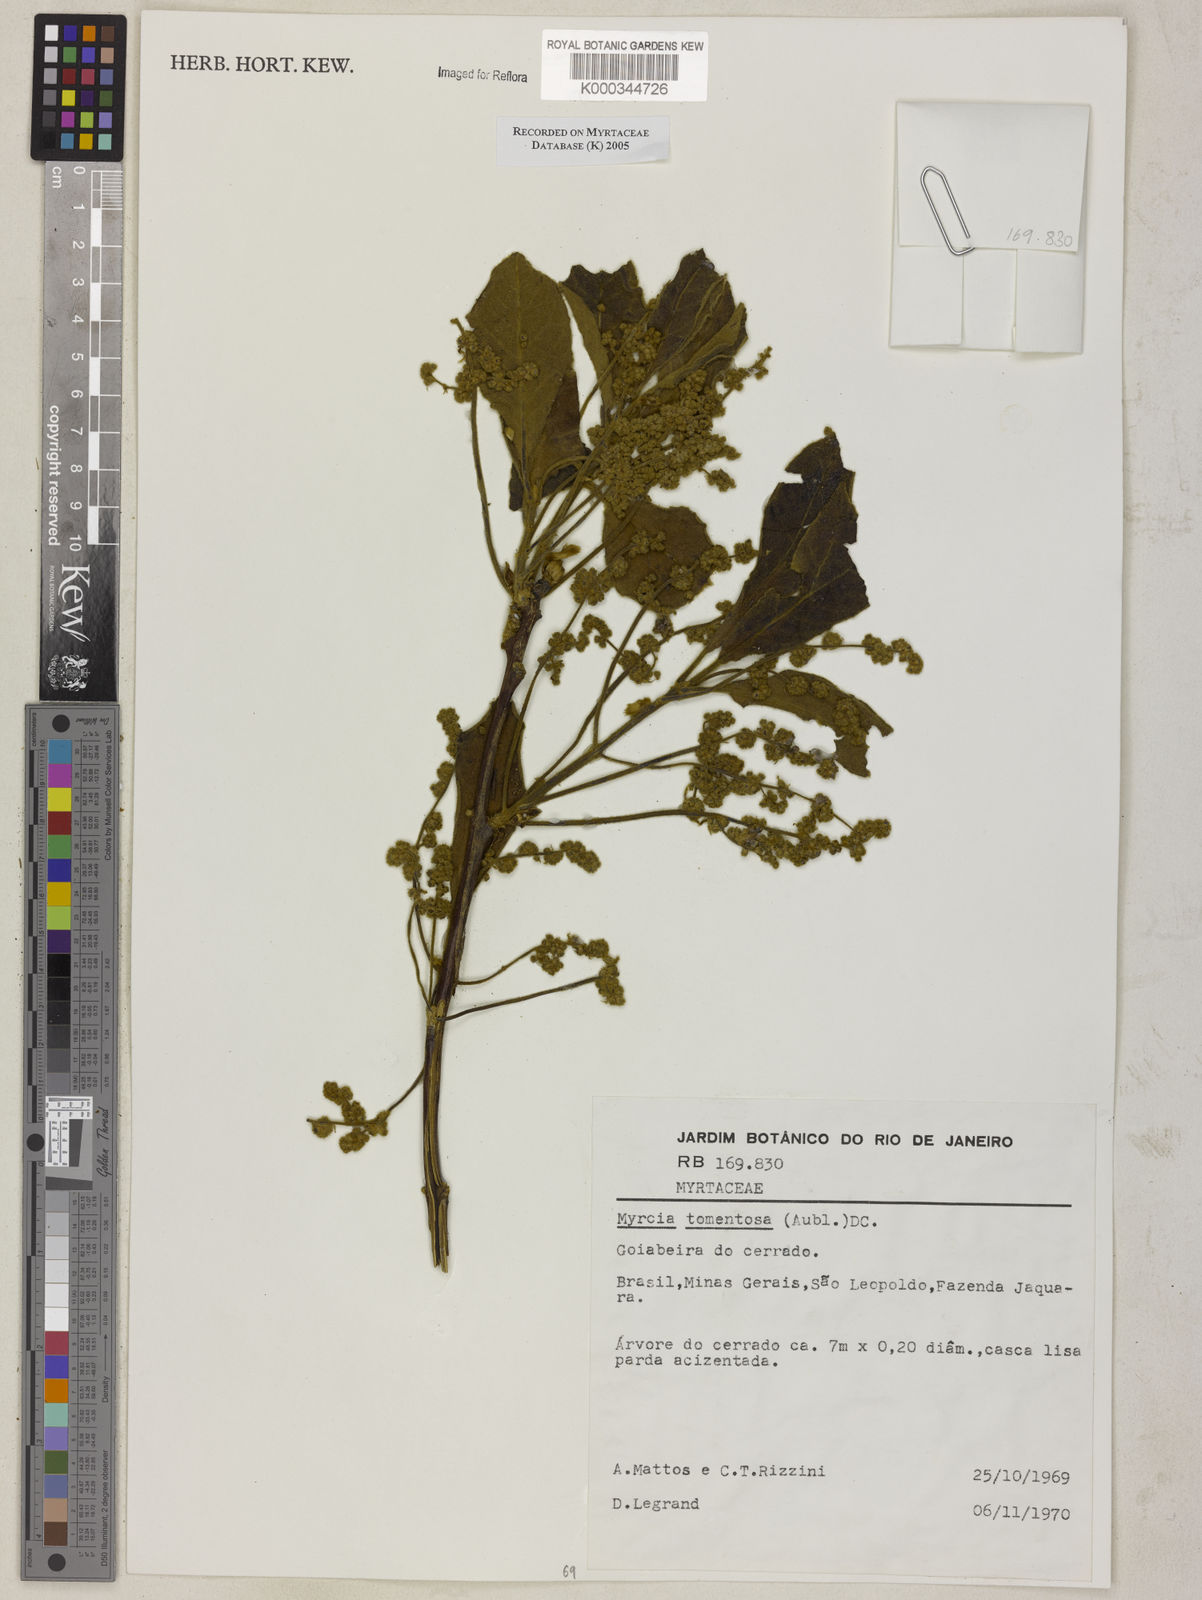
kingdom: Plantae
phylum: Tracheophyta
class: Magnoliopsida
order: Myrtales
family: Myrtaceae
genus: Myrcia
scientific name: Myrcia tomentosa
